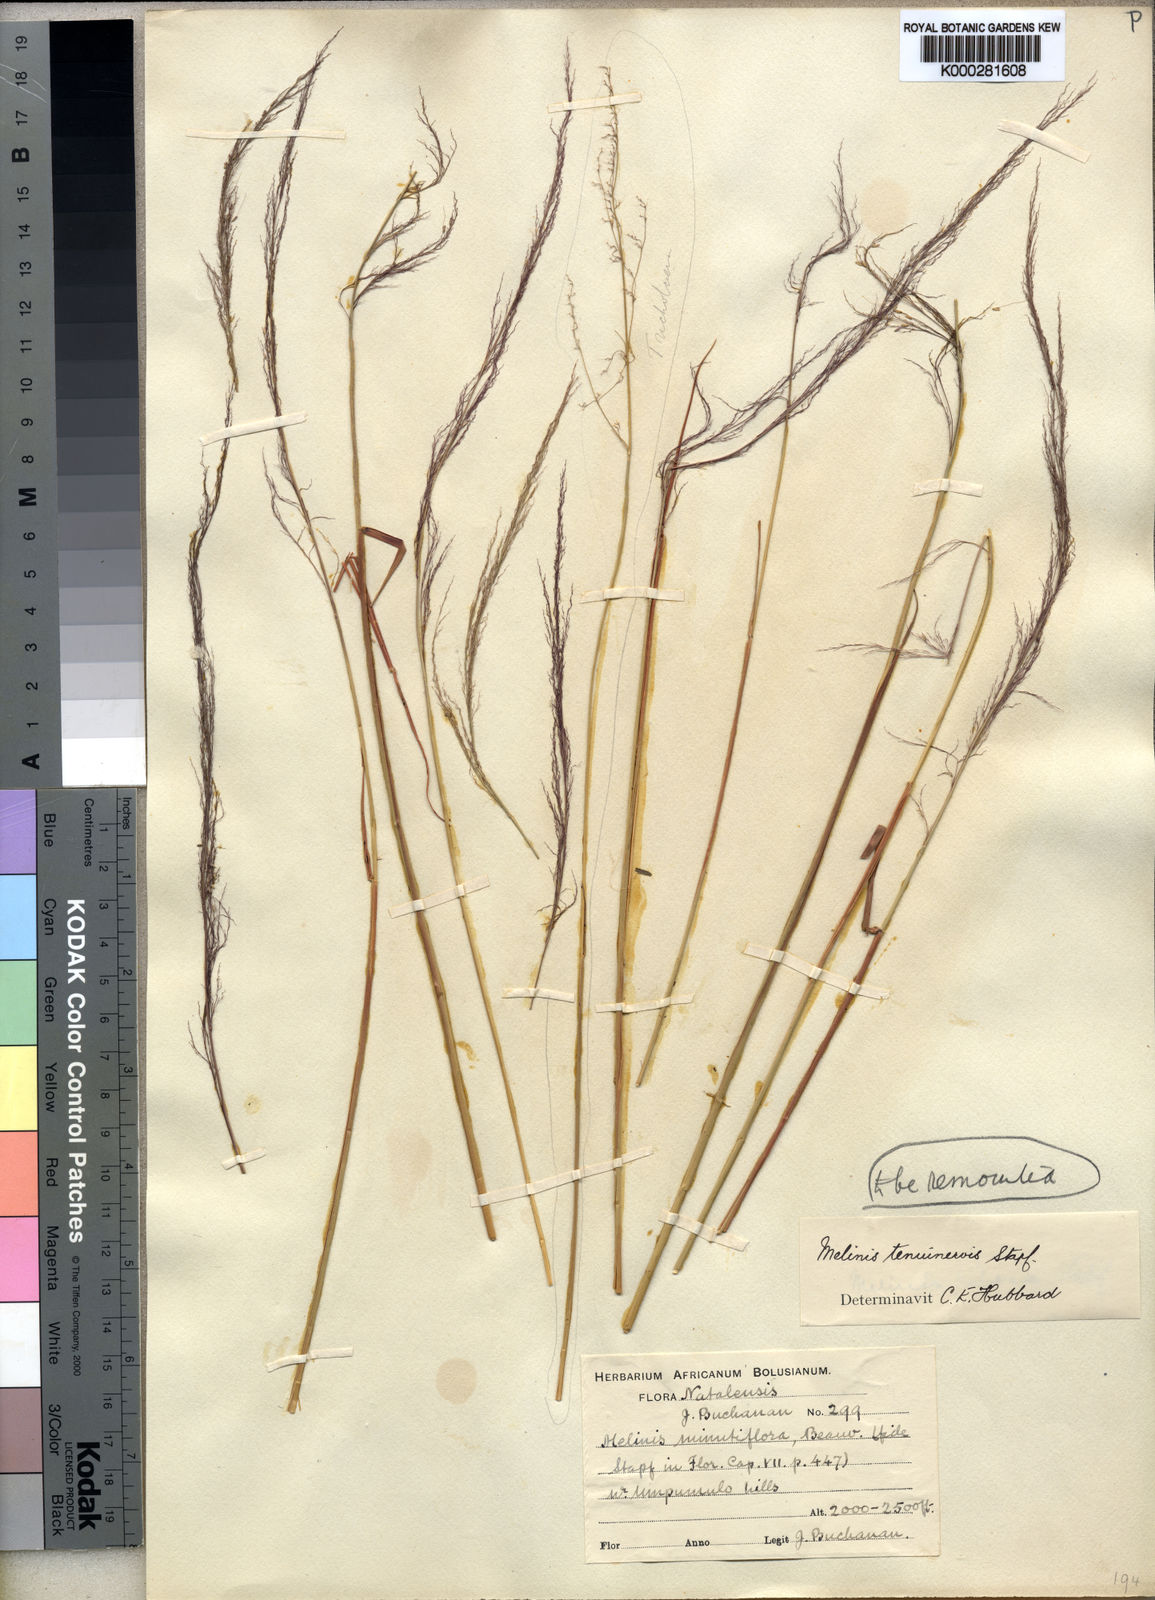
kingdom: Plantae
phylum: Tracheophyta
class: Liliopsida
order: Poales
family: Poaceae
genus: Melinis
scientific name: Melinis minutiflora
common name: Molassesgrass
